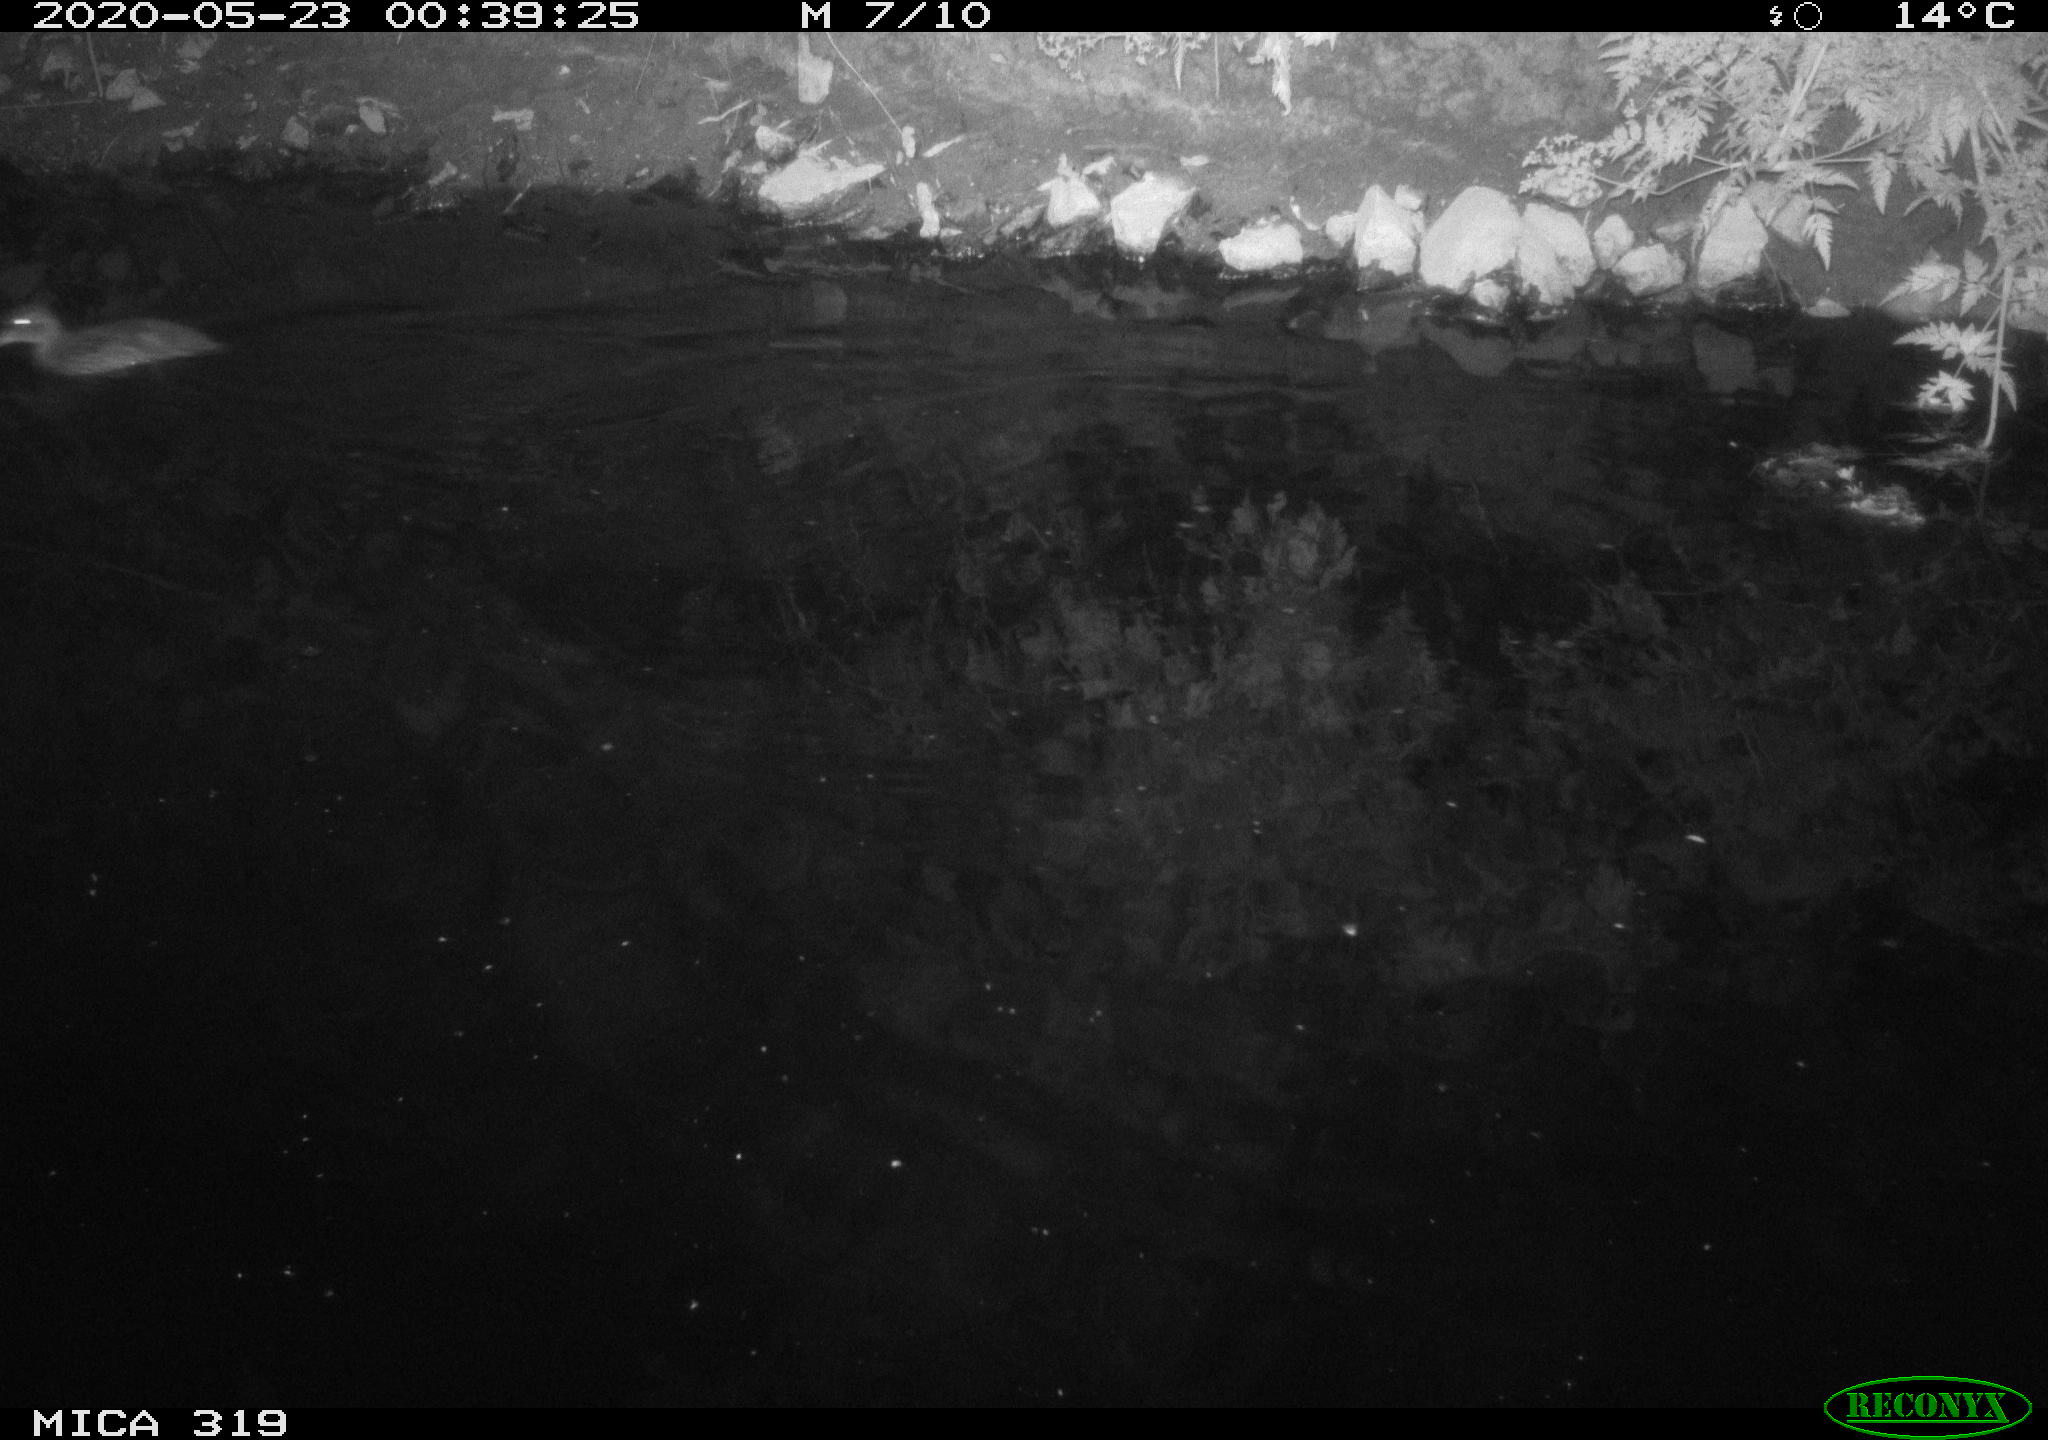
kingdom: Animalia
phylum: Chordata
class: Aves
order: Anseriformes
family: Anatidae
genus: Anas
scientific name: Anas platyrhynchos
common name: Mallard
